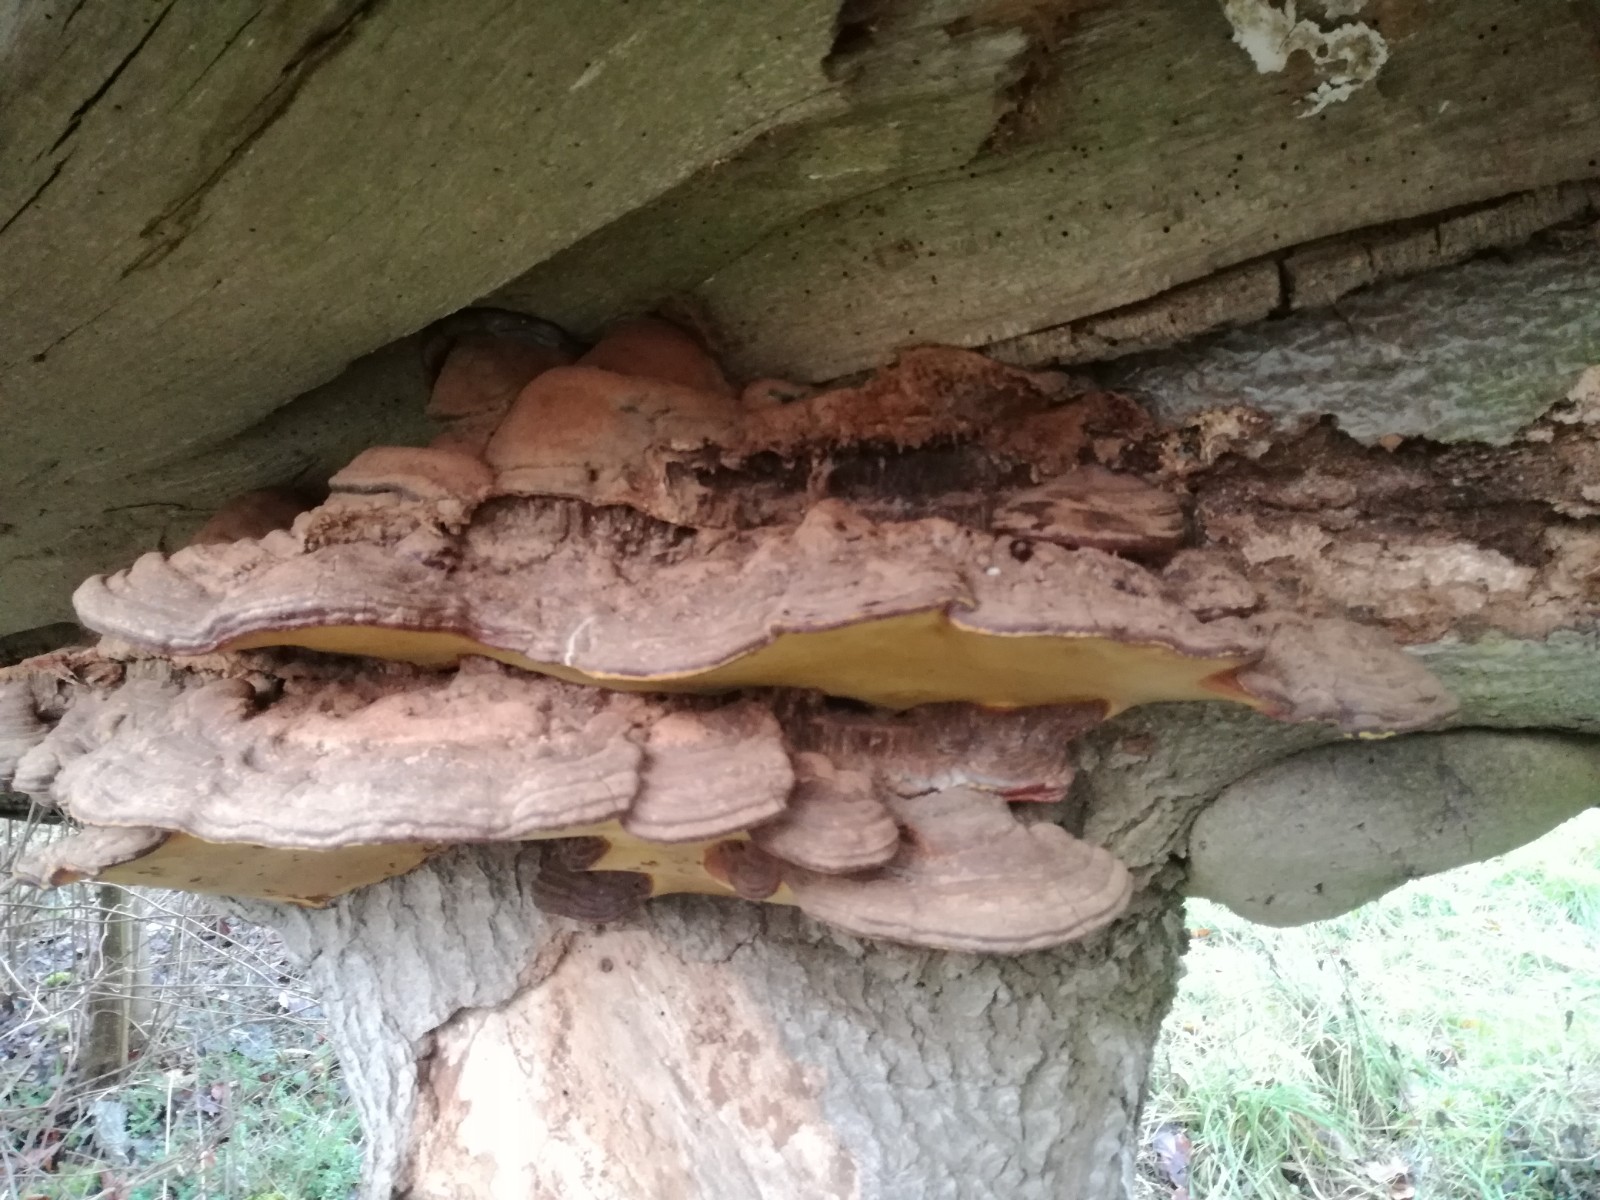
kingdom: Fungi
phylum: Basidiomycota
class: Agaricomycetes
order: Polyporales
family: Polyporaceae
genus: Ganoderma
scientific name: Ganoderma pfeifferi
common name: kobberrød lakporesvamp
